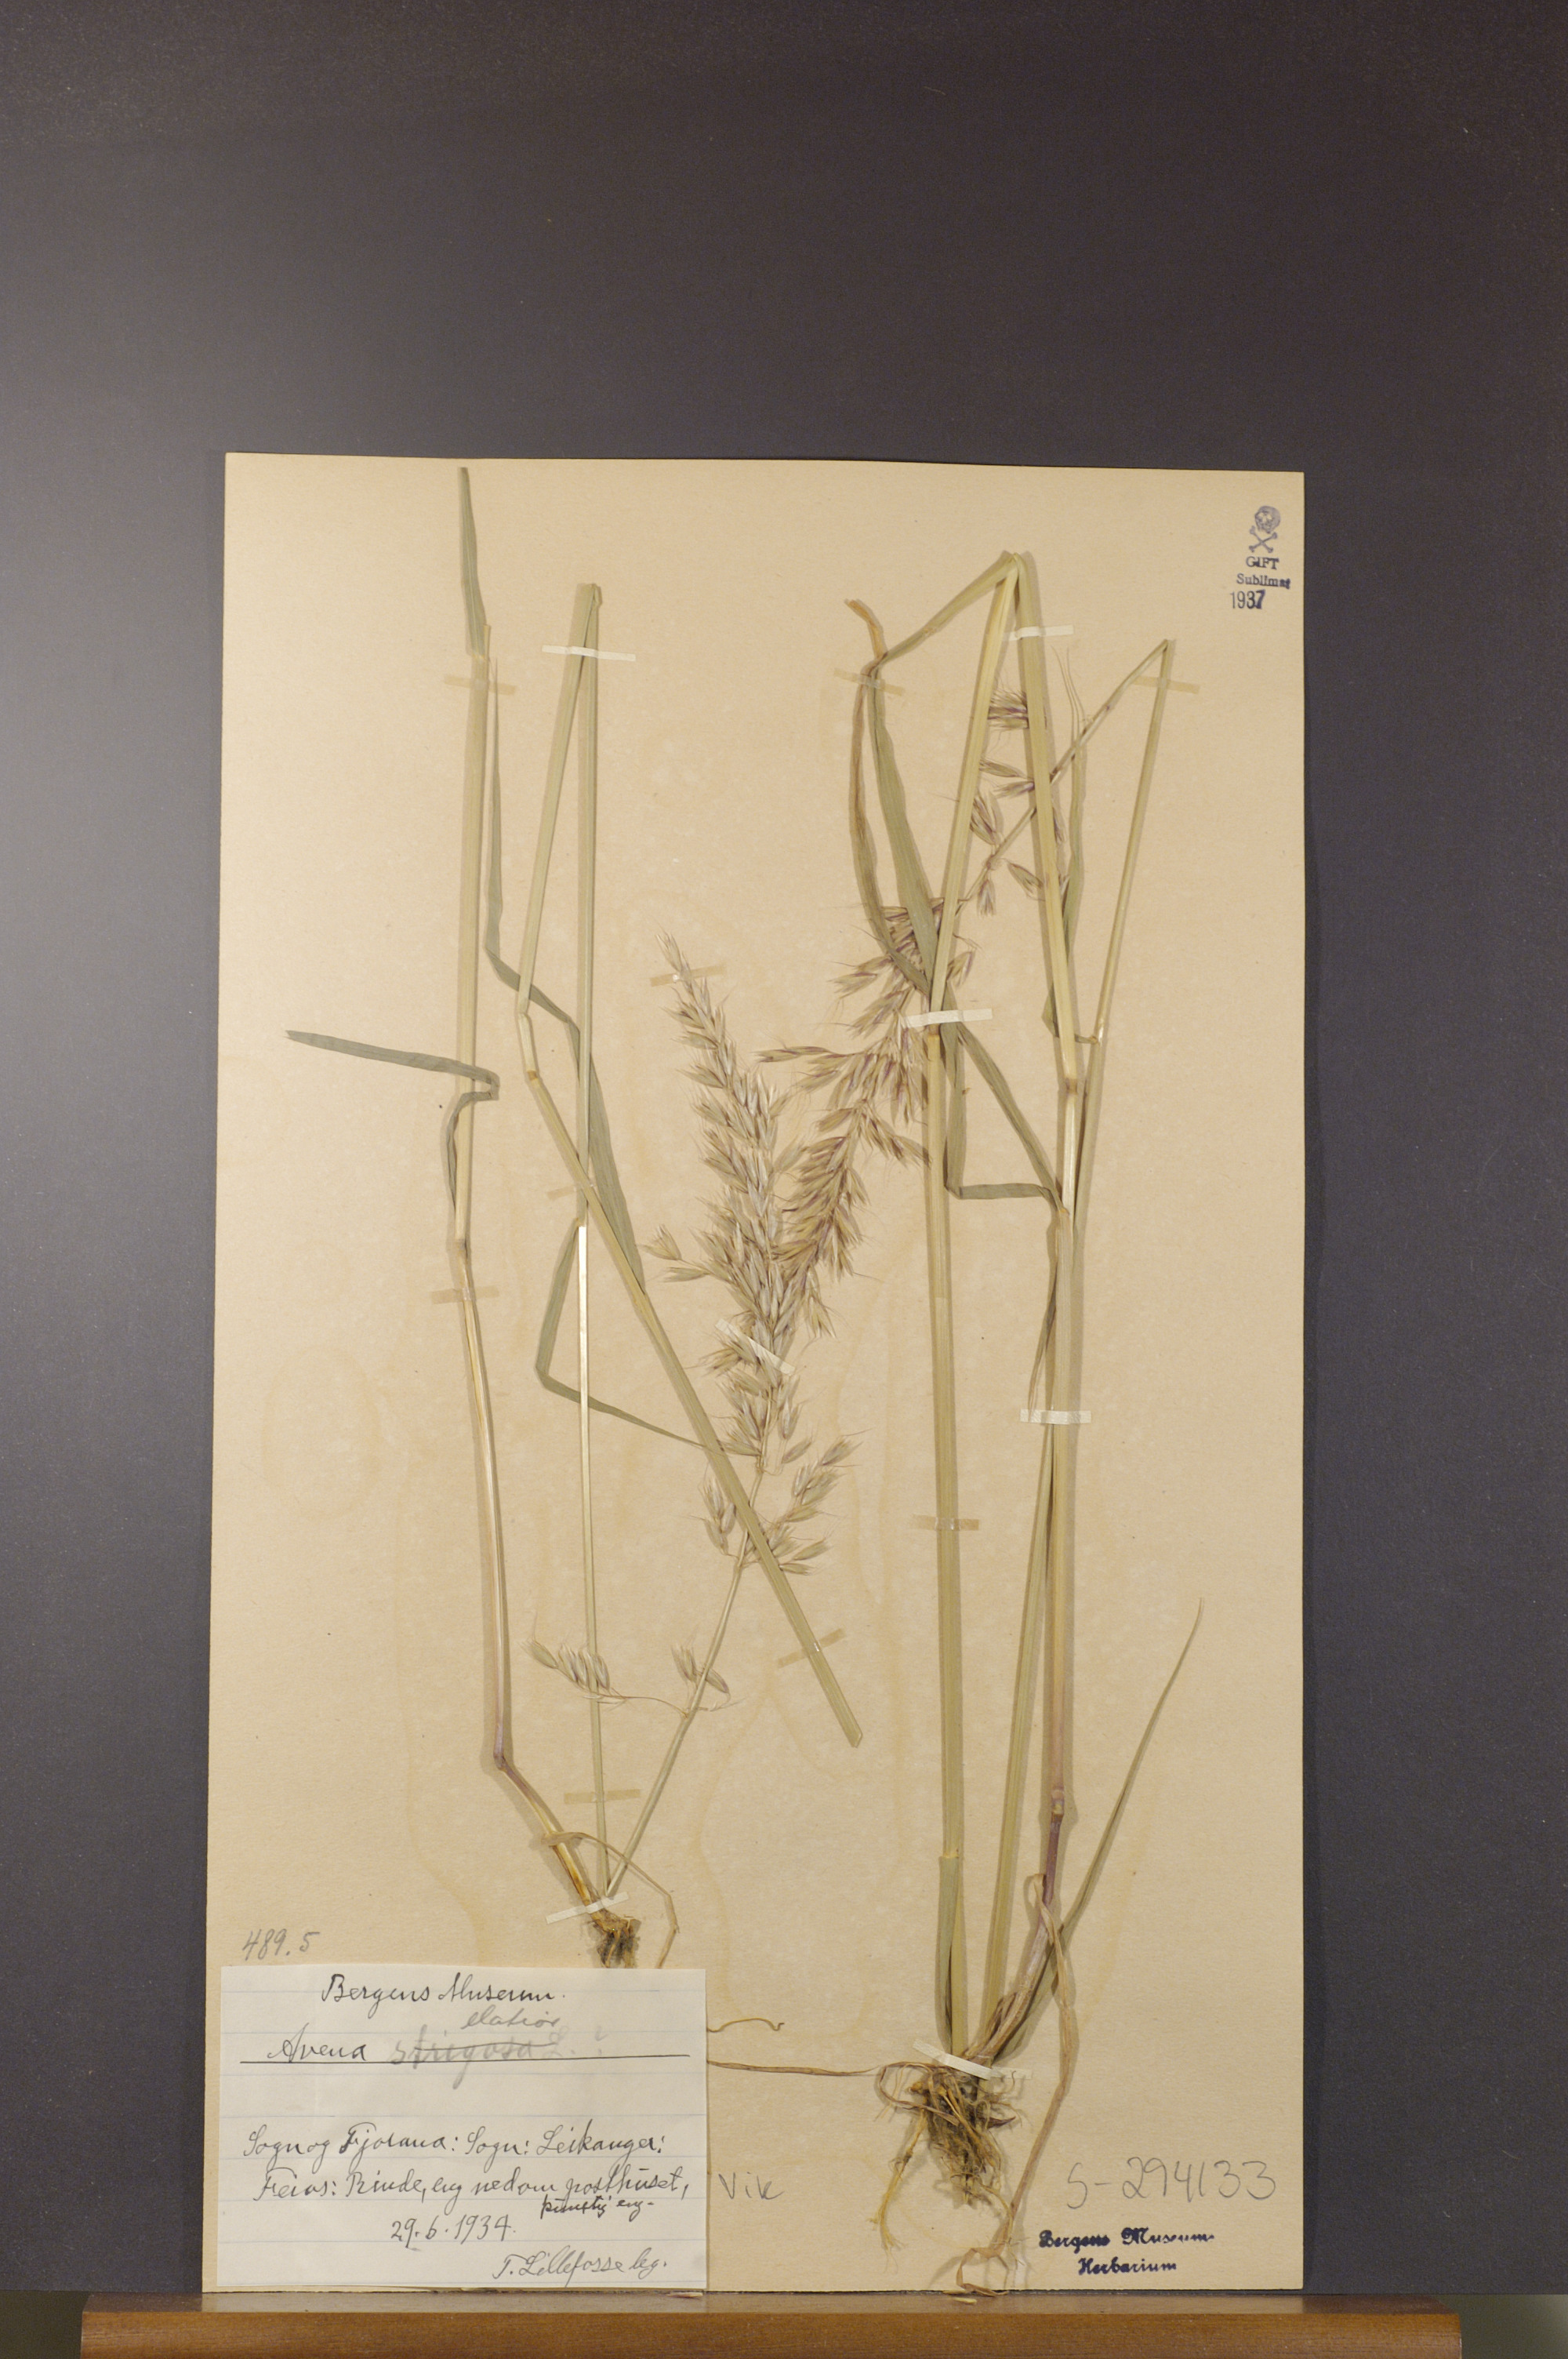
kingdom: Plantae
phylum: Tracheophyta
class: Liliopsida
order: Poales
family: Poaceae
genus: Arrhenatherum
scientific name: Arrhenatherum elatius
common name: Tall oatgrass
